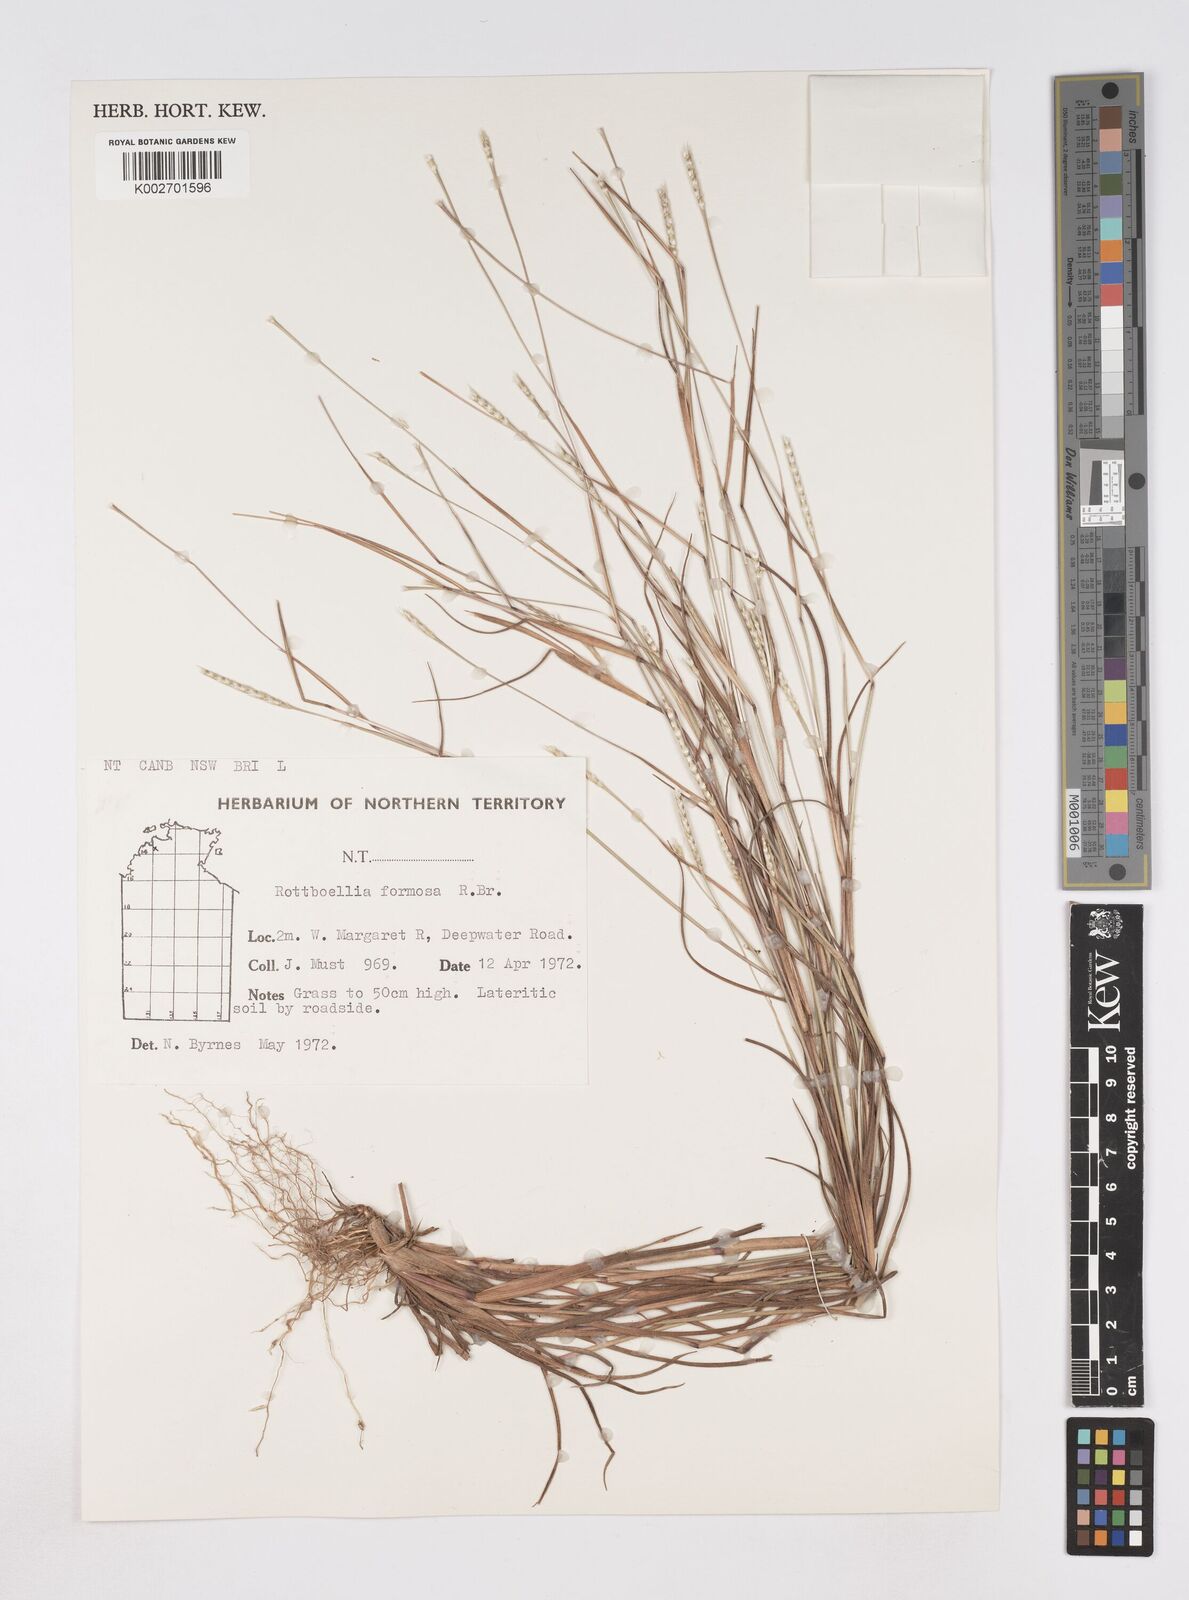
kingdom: Plantae
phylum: Tracheophyta
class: Liliopsida
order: Poales
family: Poaceae
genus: Heteropholis
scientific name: Heteropholis
